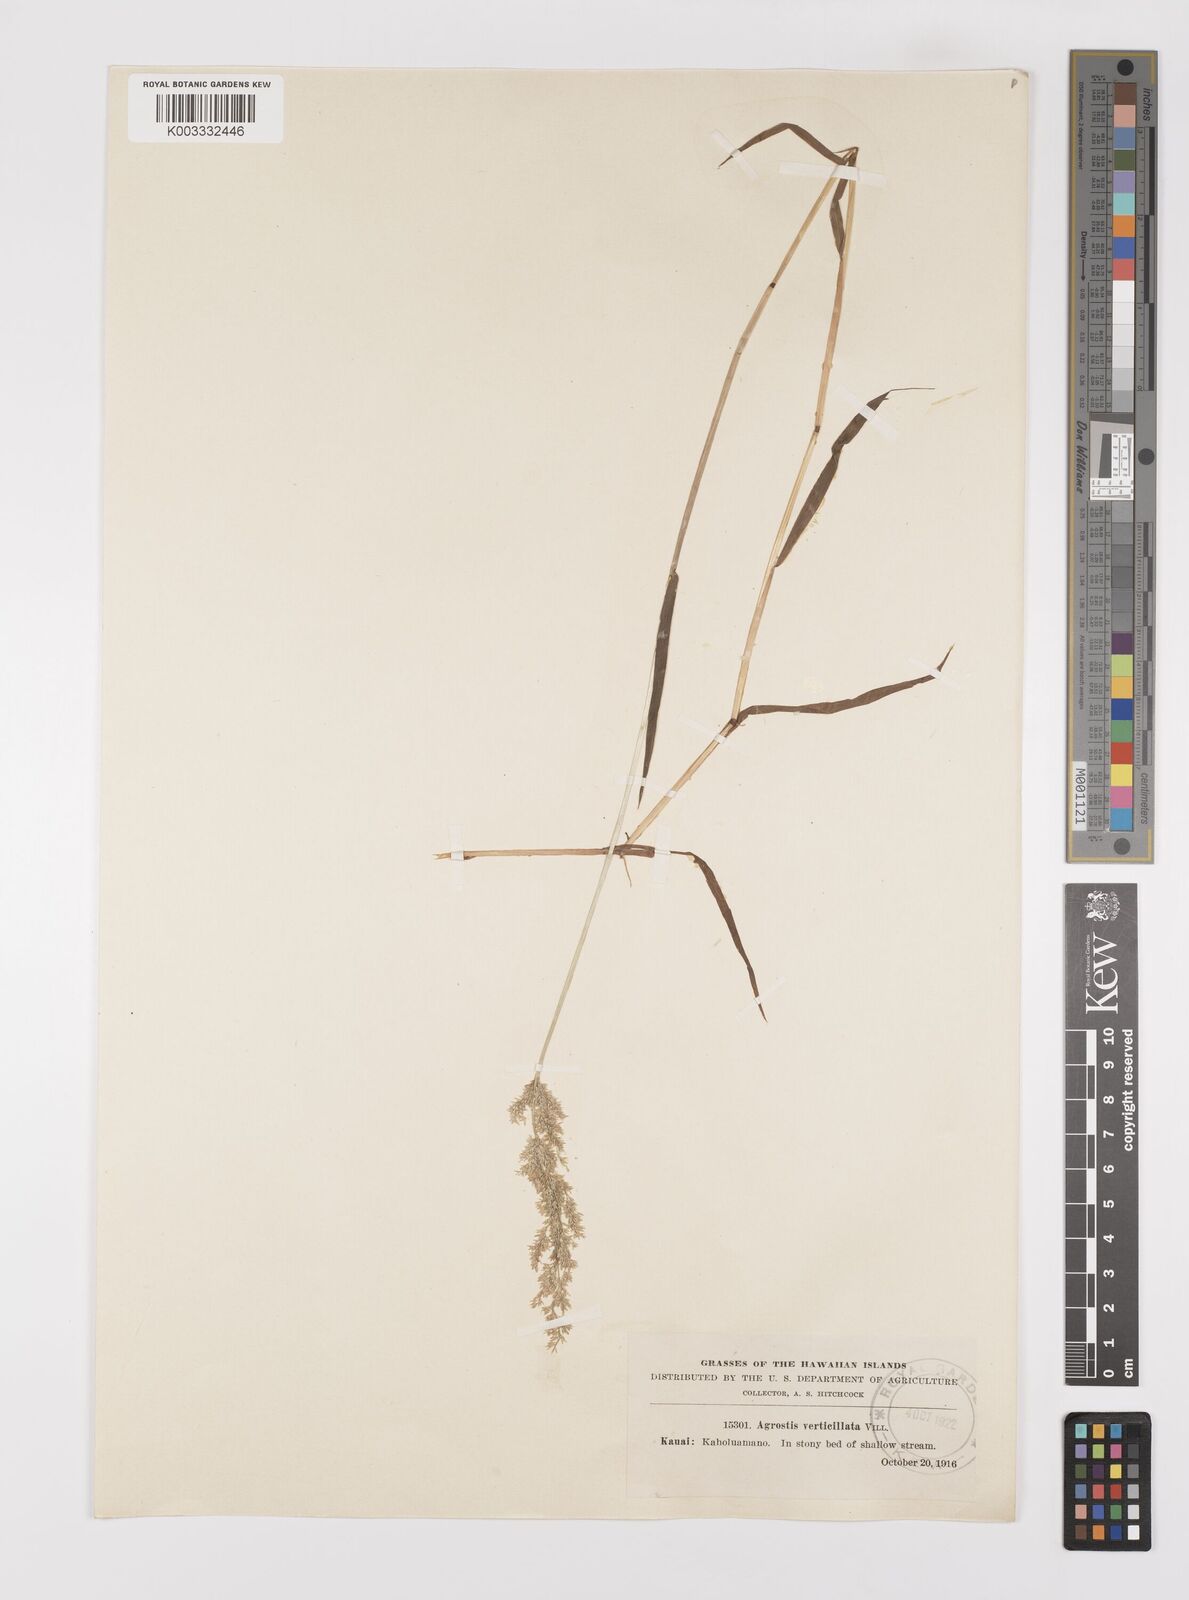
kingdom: Plantae
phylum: Tracheophyta
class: Liliopsida
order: Poales
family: Poaceae
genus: Polypogon
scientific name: Polypogon viridis
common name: Water bent
